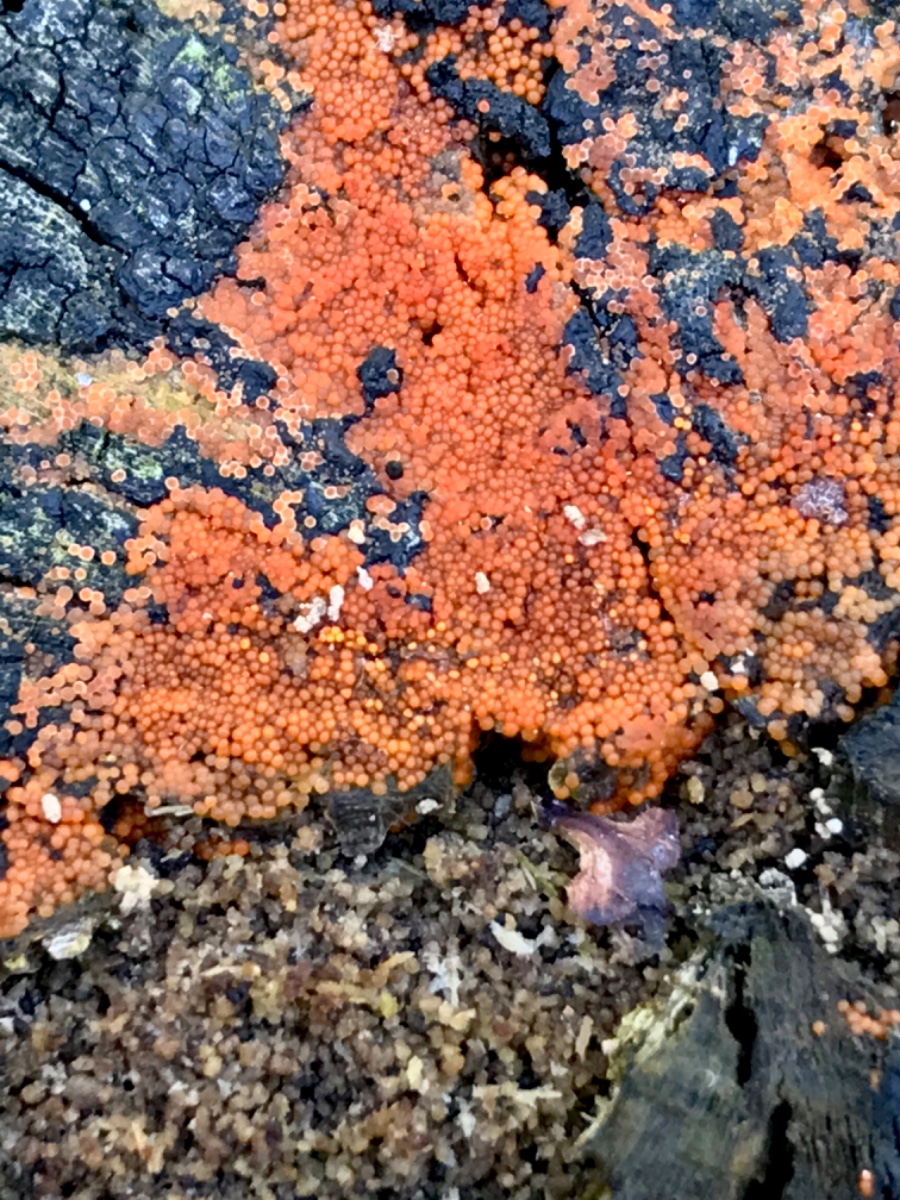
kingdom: Fungi
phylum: Ascomycota
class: Sordariomycetes
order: Hypocreales
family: Nectriaceae
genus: Hydropisphaera
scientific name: Hydropisphaera peziza
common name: skålformet gyldenkerne
